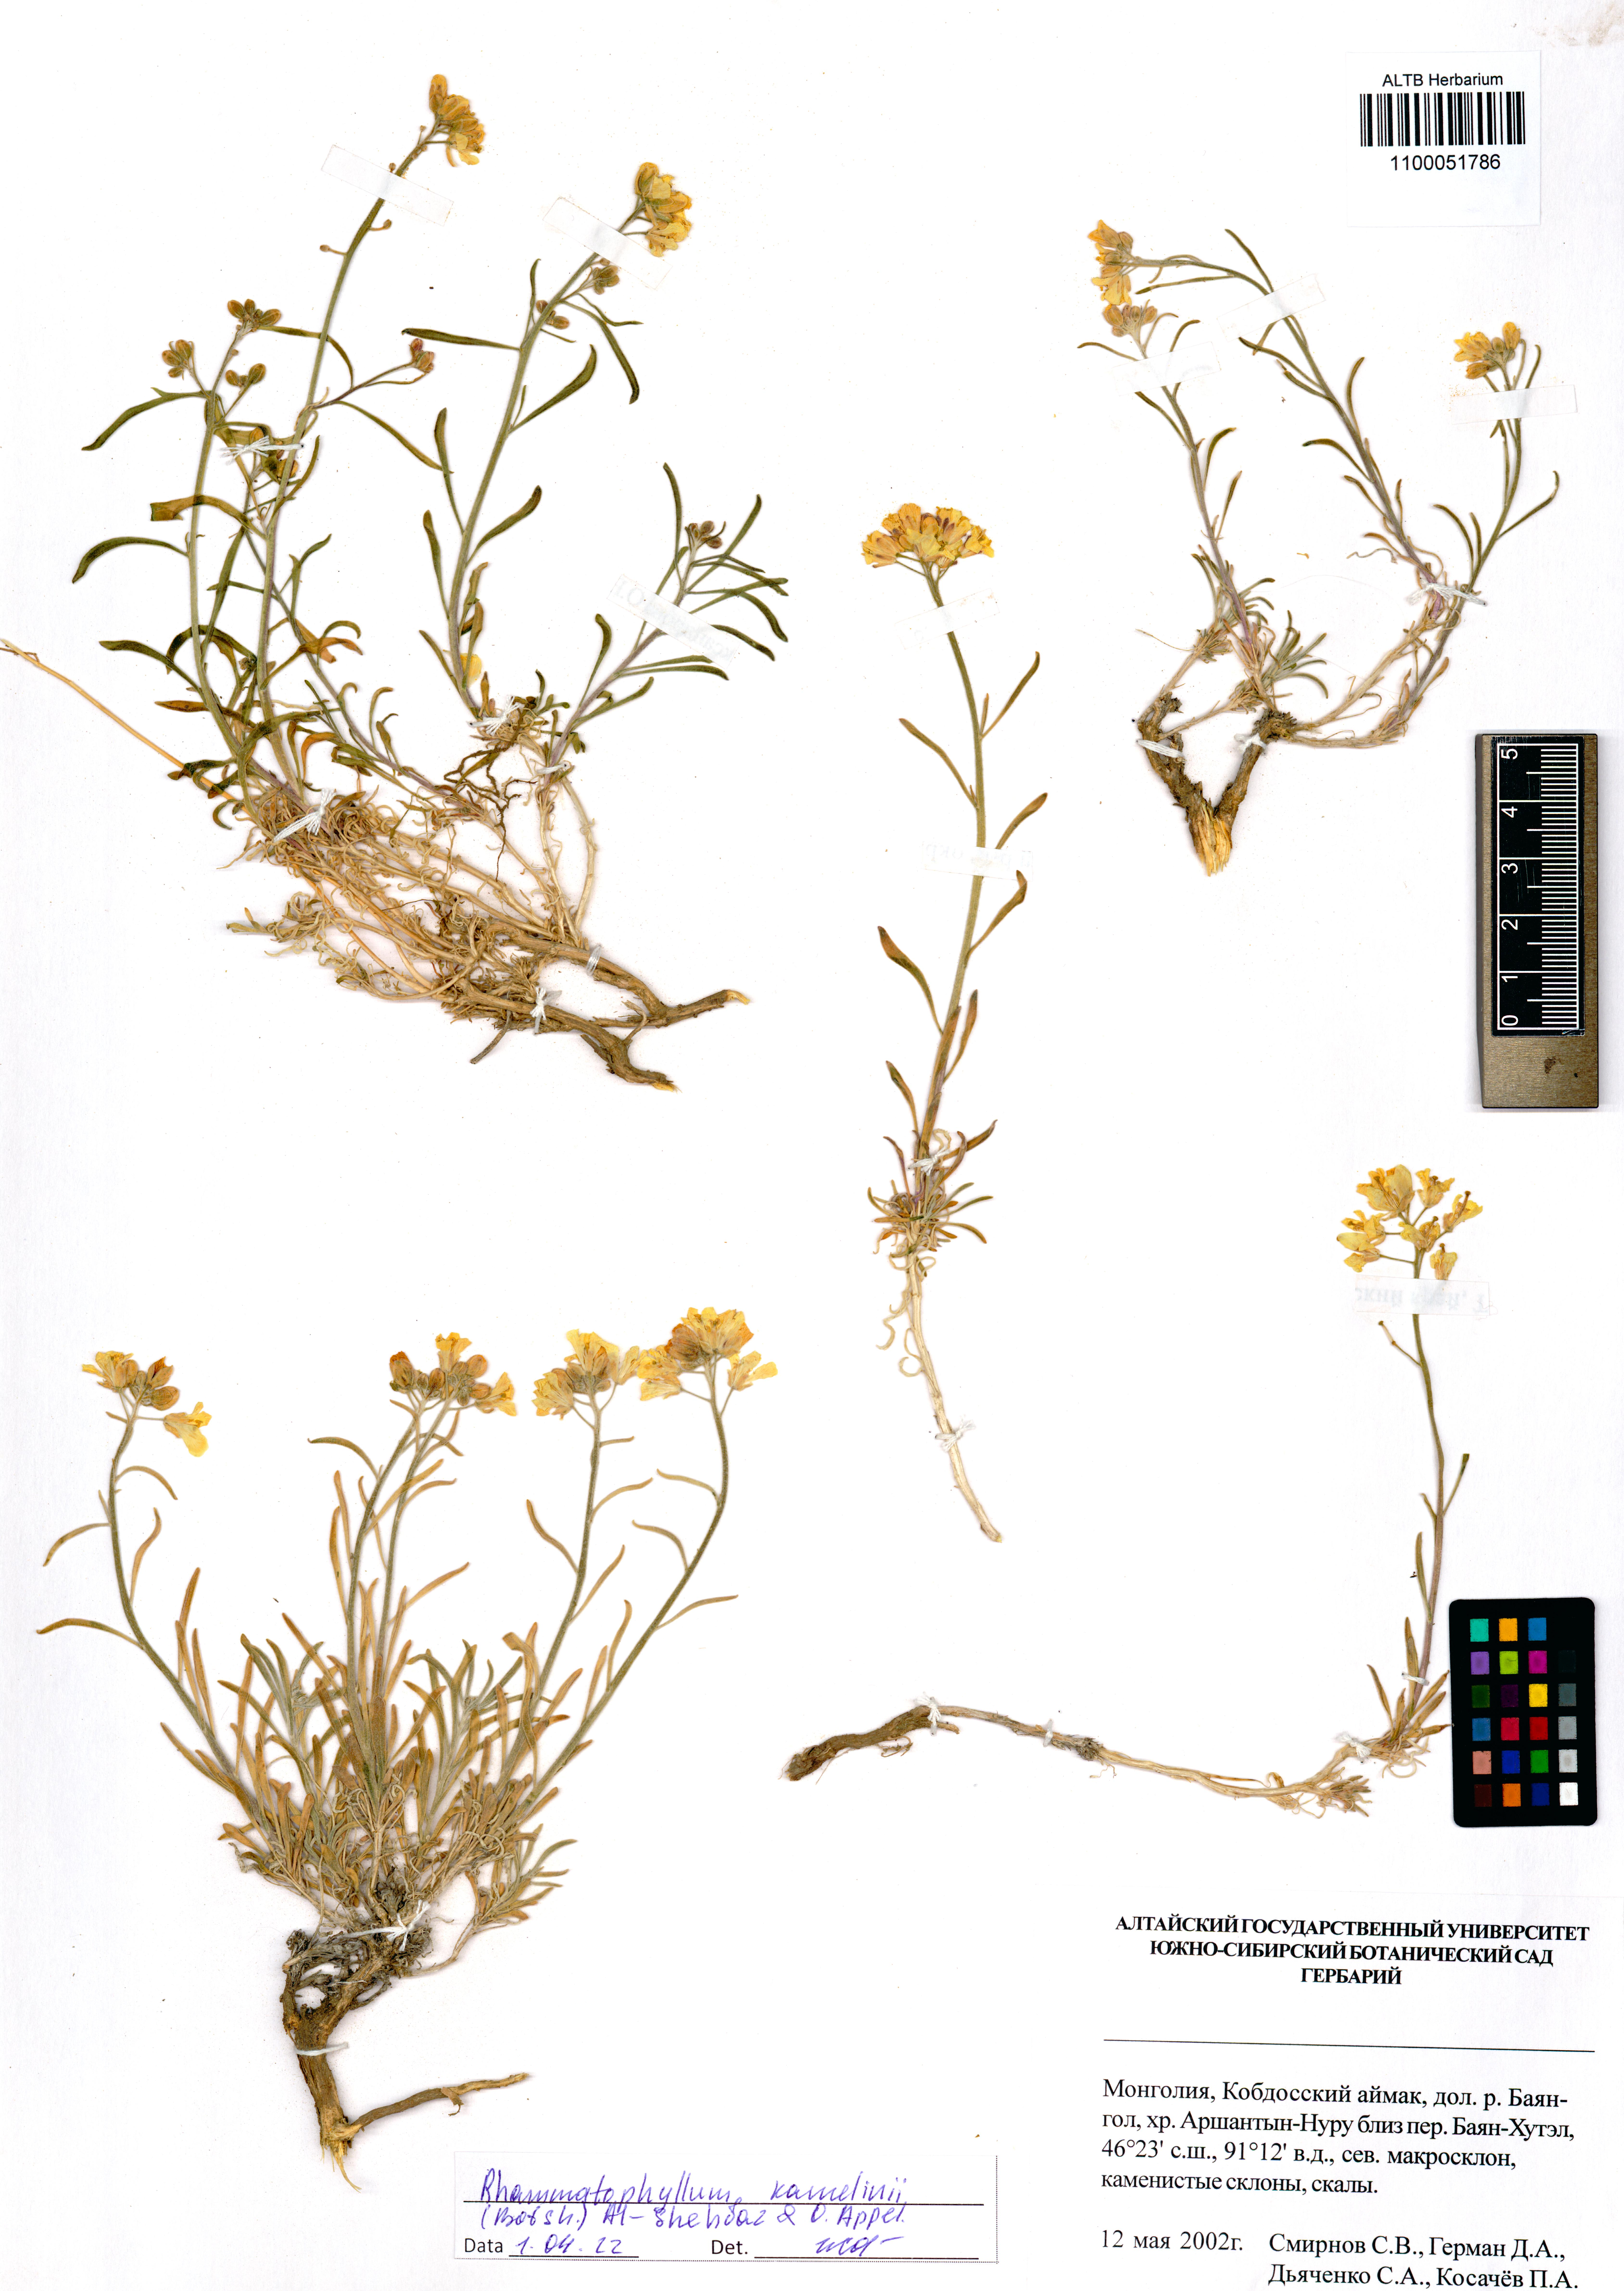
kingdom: Plantae
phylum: Tracheophyta
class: Magnoliopsida
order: Brassicales
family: Brassicaceae
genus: Rhammatophyllum
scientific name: Rhammatophyllum kamelinii
